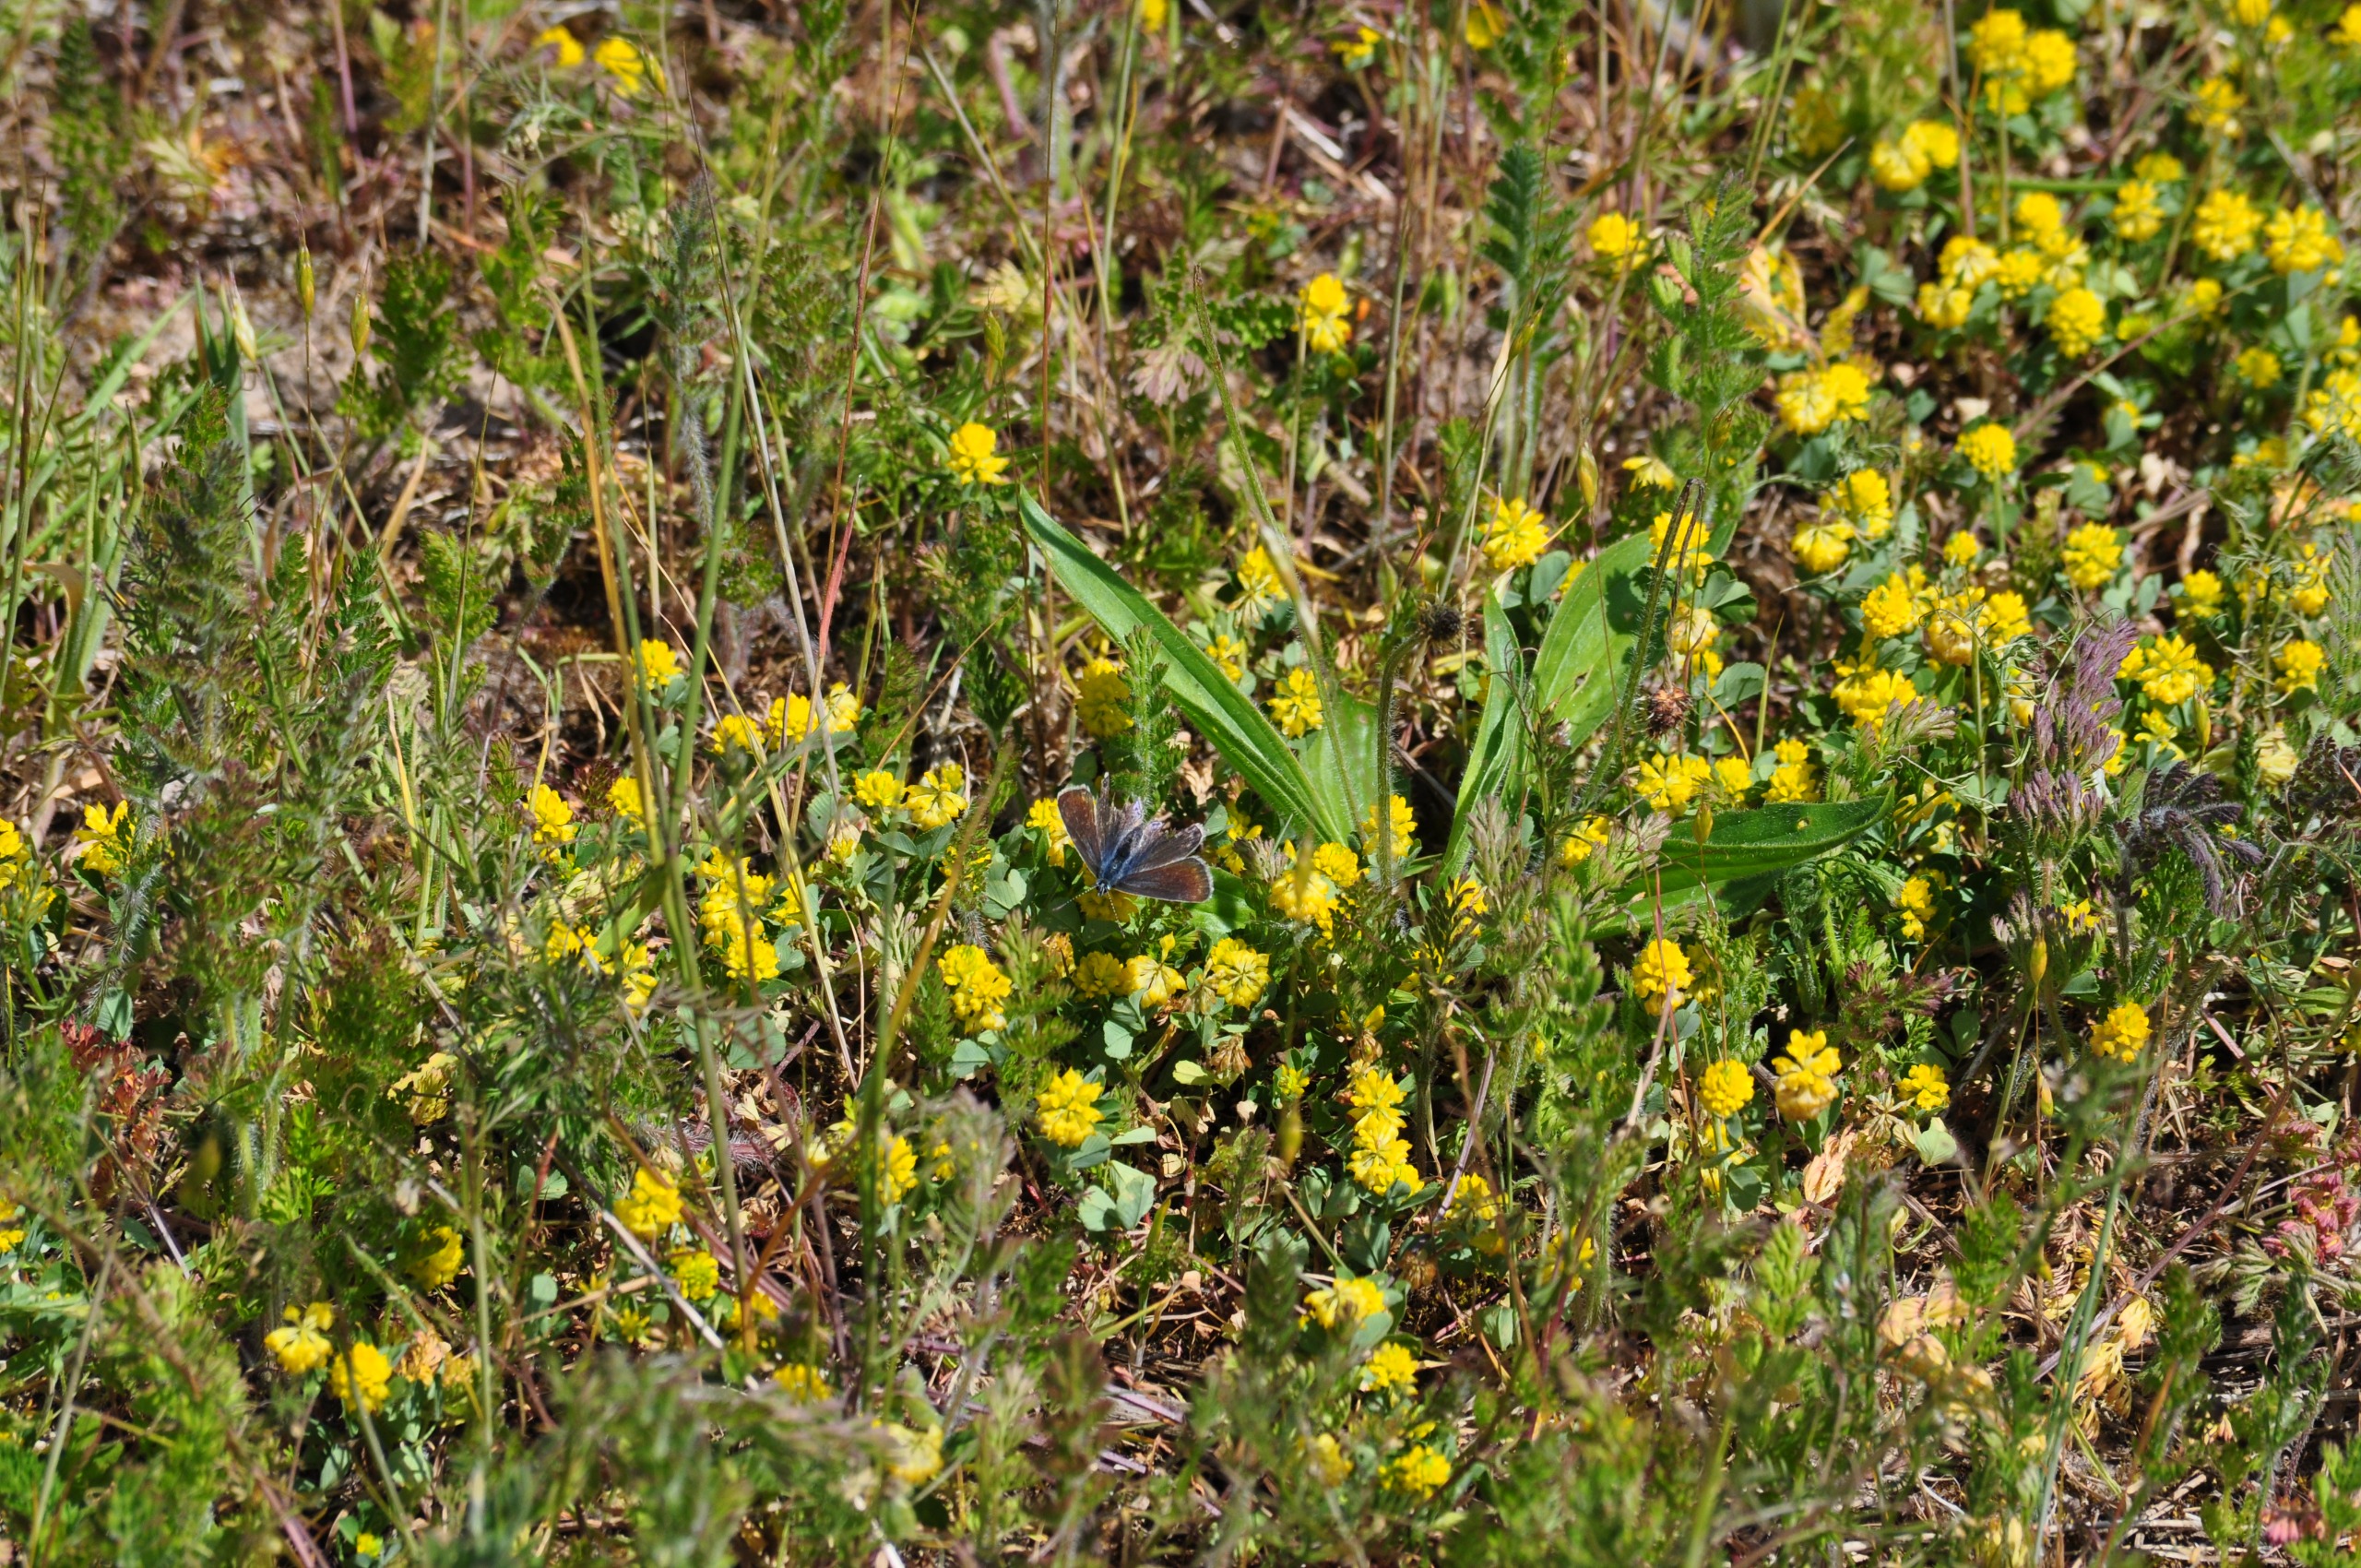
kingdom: Animalia
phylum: Arthropoda
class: Insecta
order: Lepidoptera
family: Lycaenidae
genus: Polyommatus
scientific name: Polyommatus icarus
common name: Almindelig blåfugl
